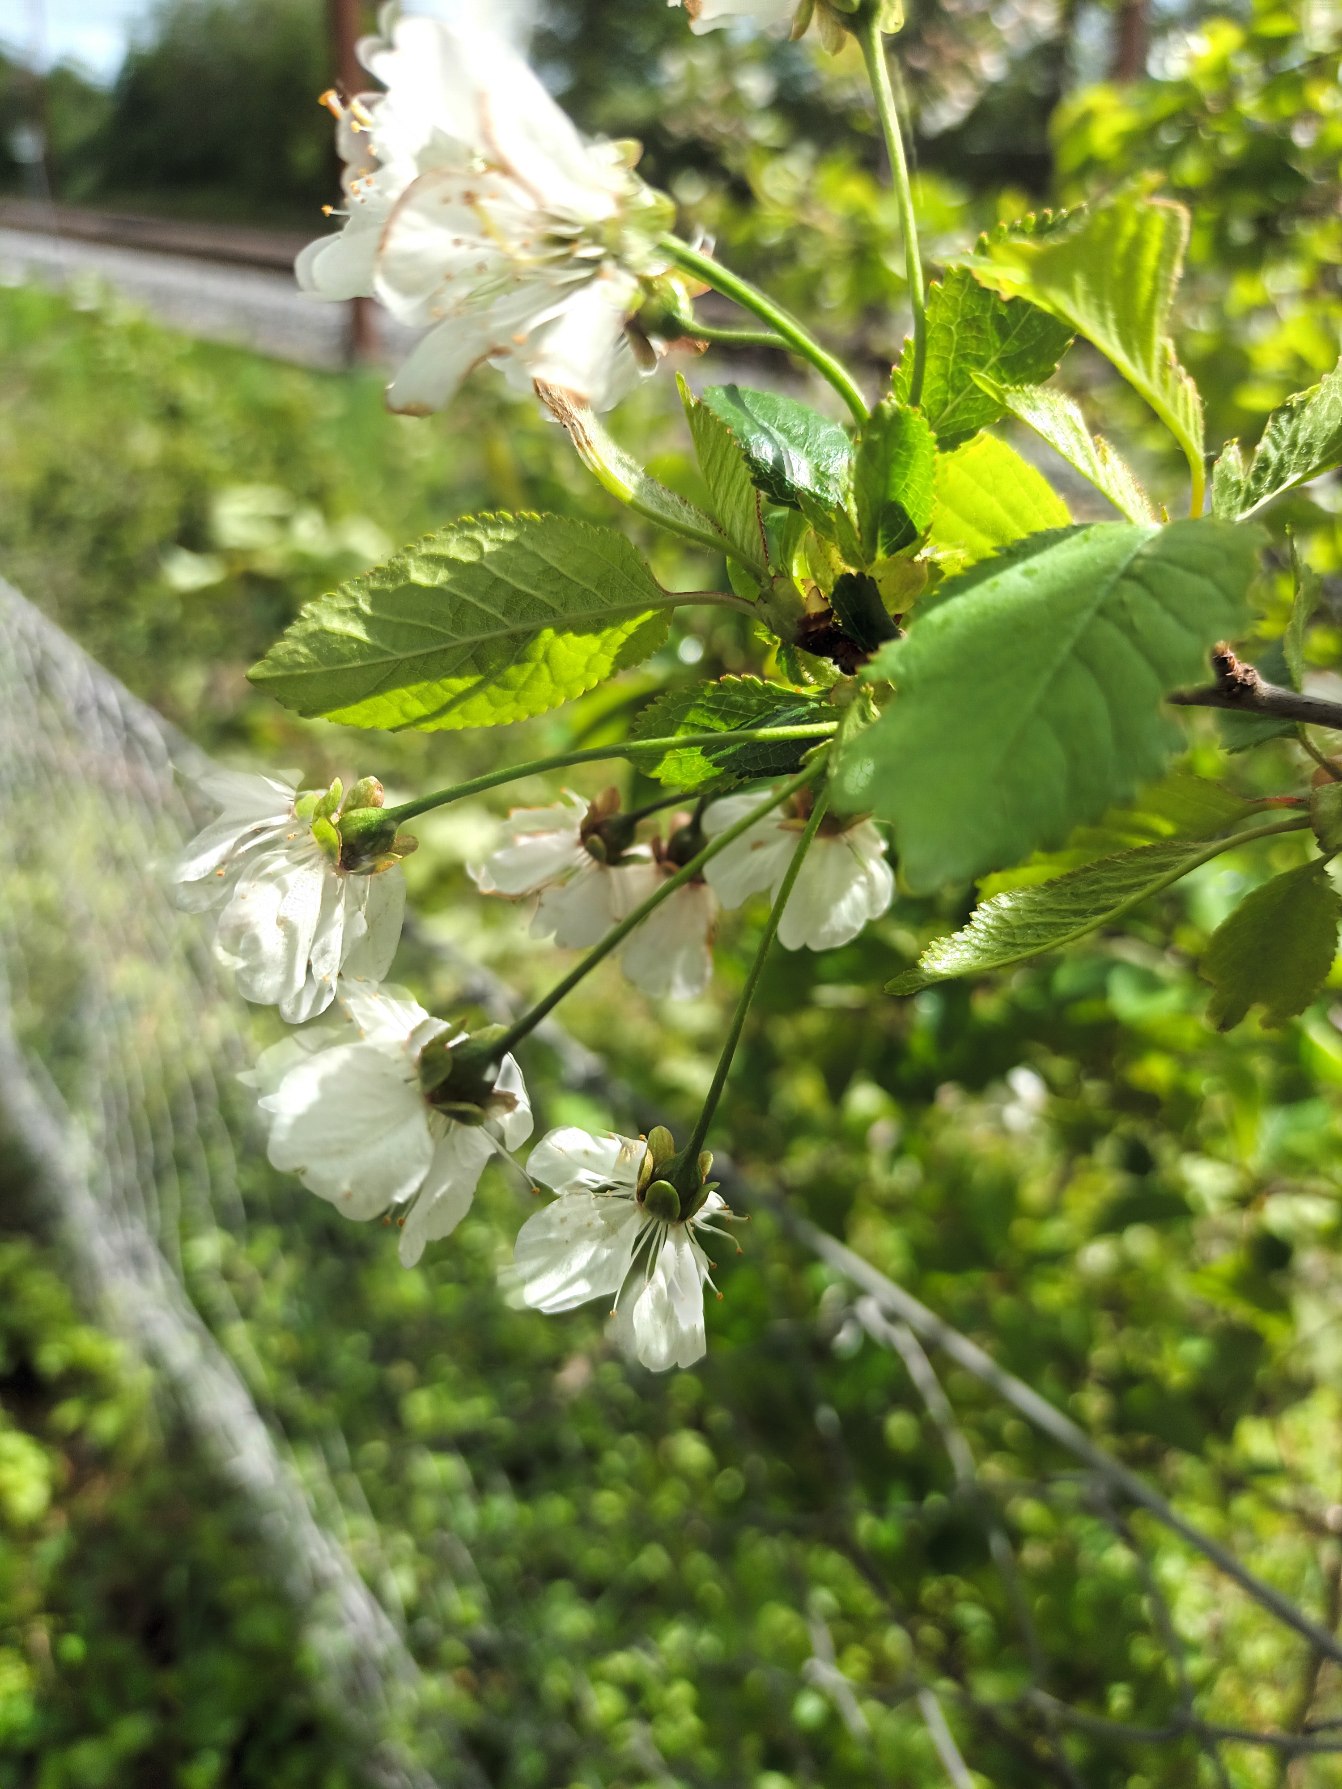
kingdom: Plantae
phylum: Tracheophyta
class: Magnoliopsida
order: Rosales
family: Rosaceae
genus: Prunus
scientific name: Prunus cerasus
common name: Sur-kirsebær
